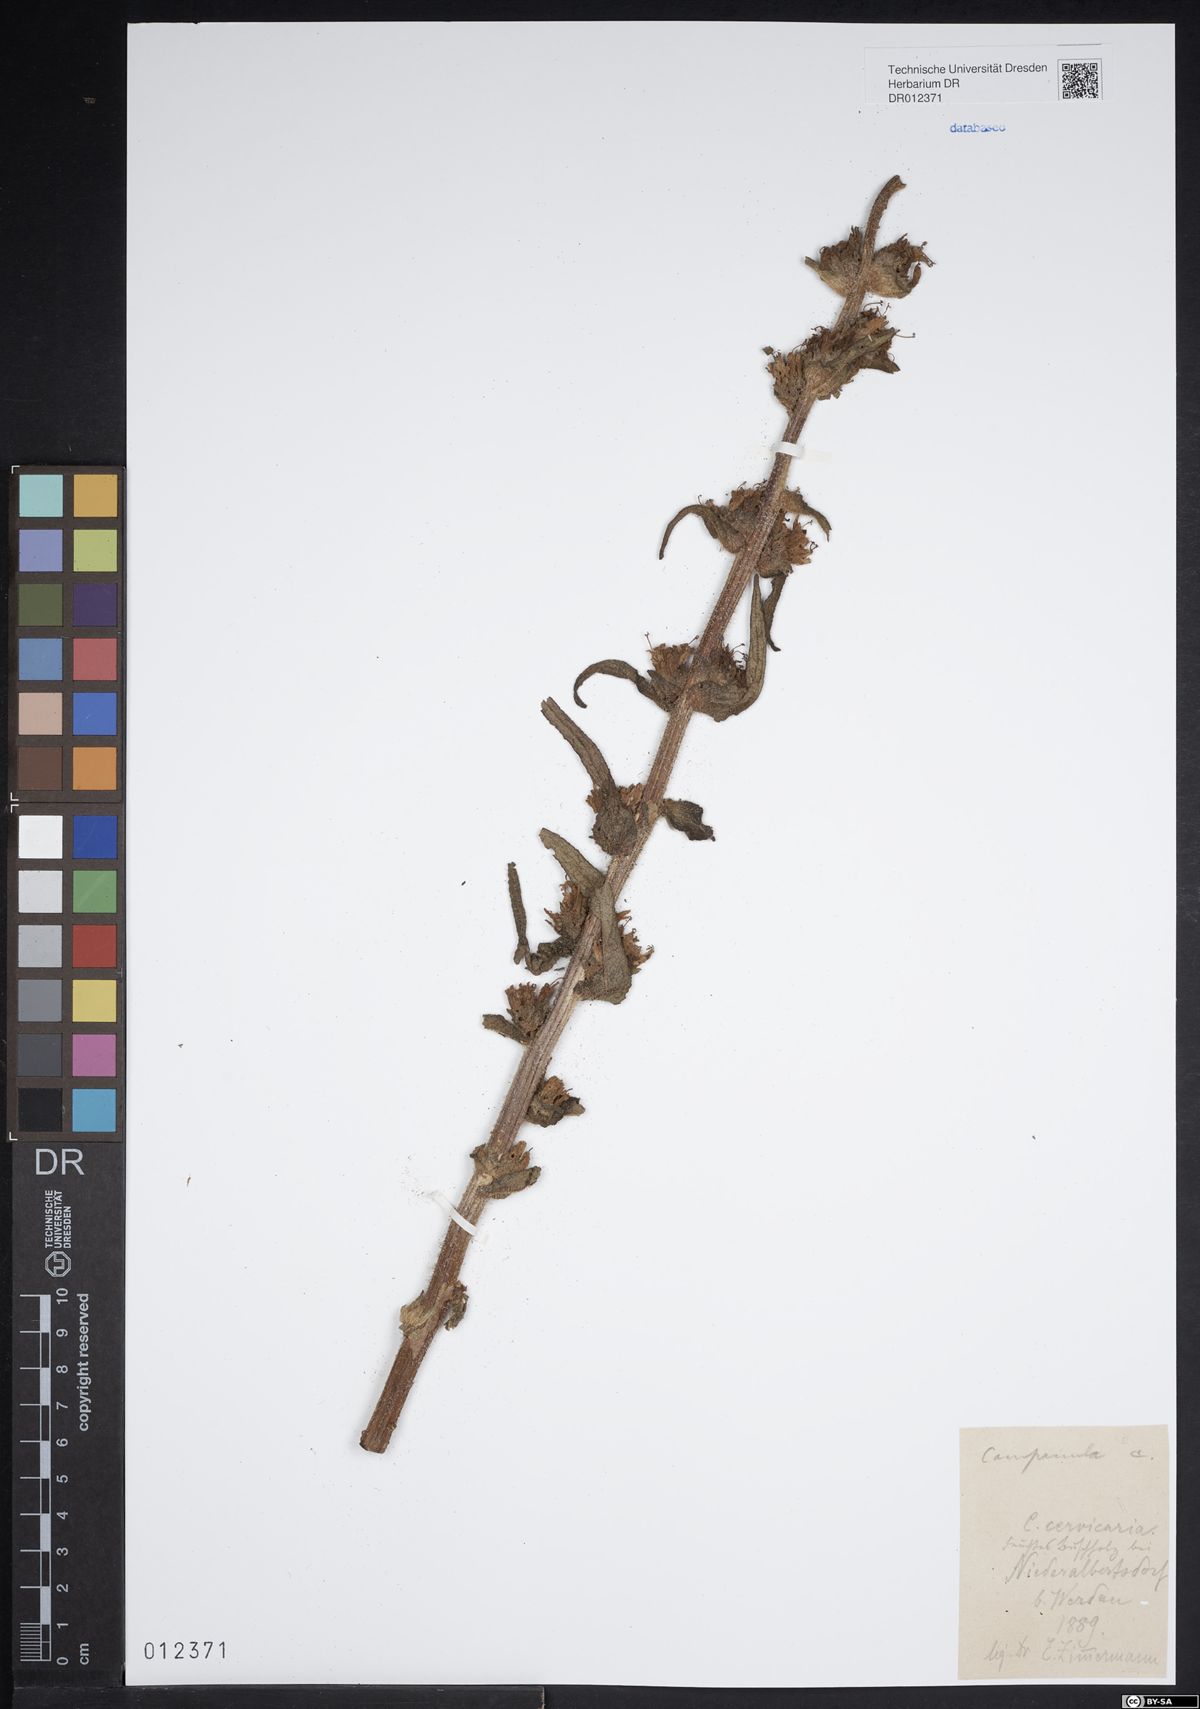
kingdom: Plantae
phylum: Tracheophyta
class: Magnoliopsida
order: Asterales
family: Campanulaceae
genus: Campanula
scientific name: Campanula cervicaria
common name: Bristly bellflower
